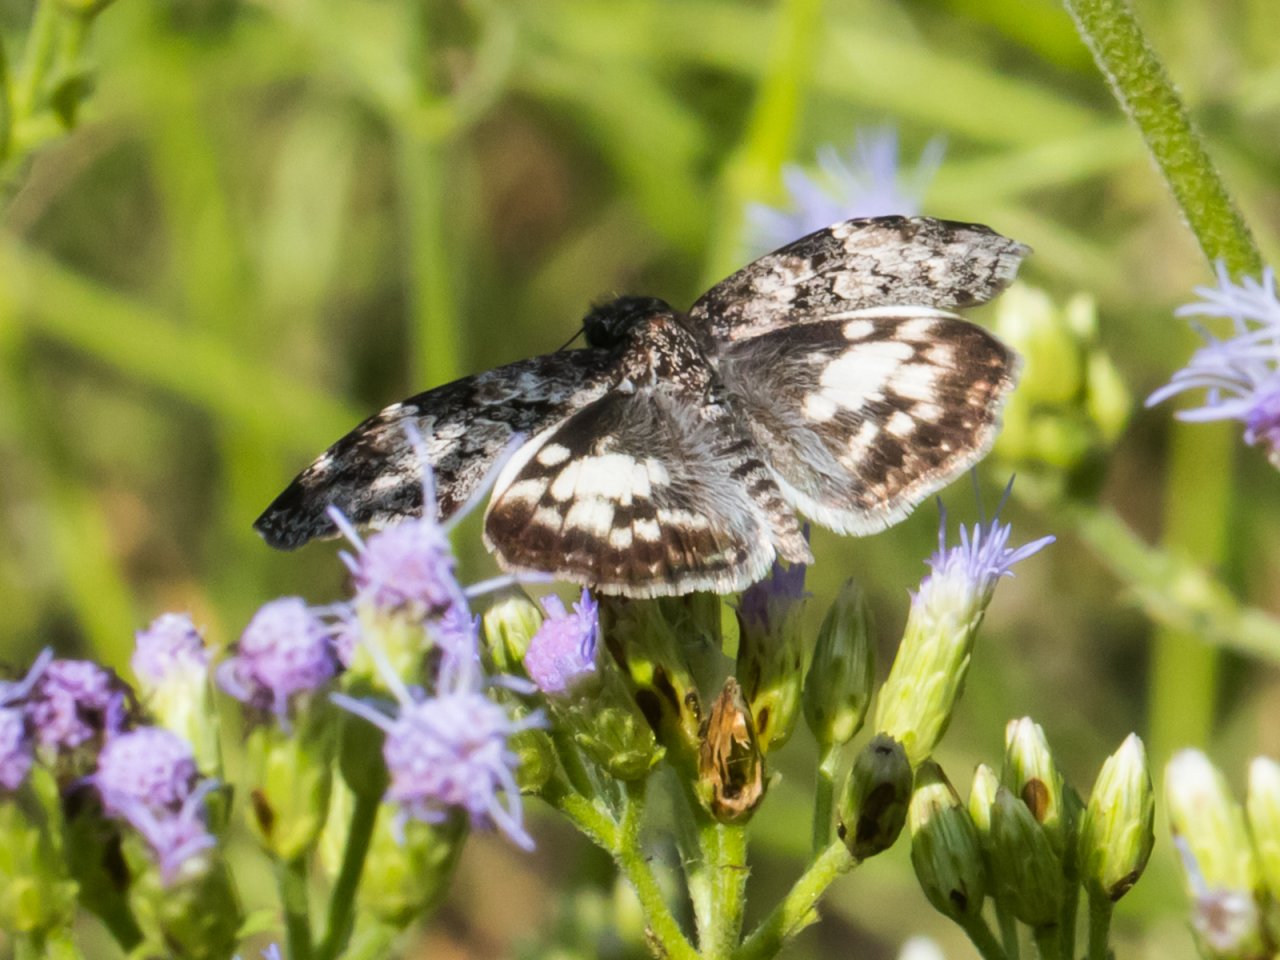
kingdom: Animalia
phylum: Arthropoda
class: Insecta
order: Lepidoptera
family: Hesperiidae
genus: Chiomara
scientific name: Chiomara asychis
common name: White-patched Skipper
